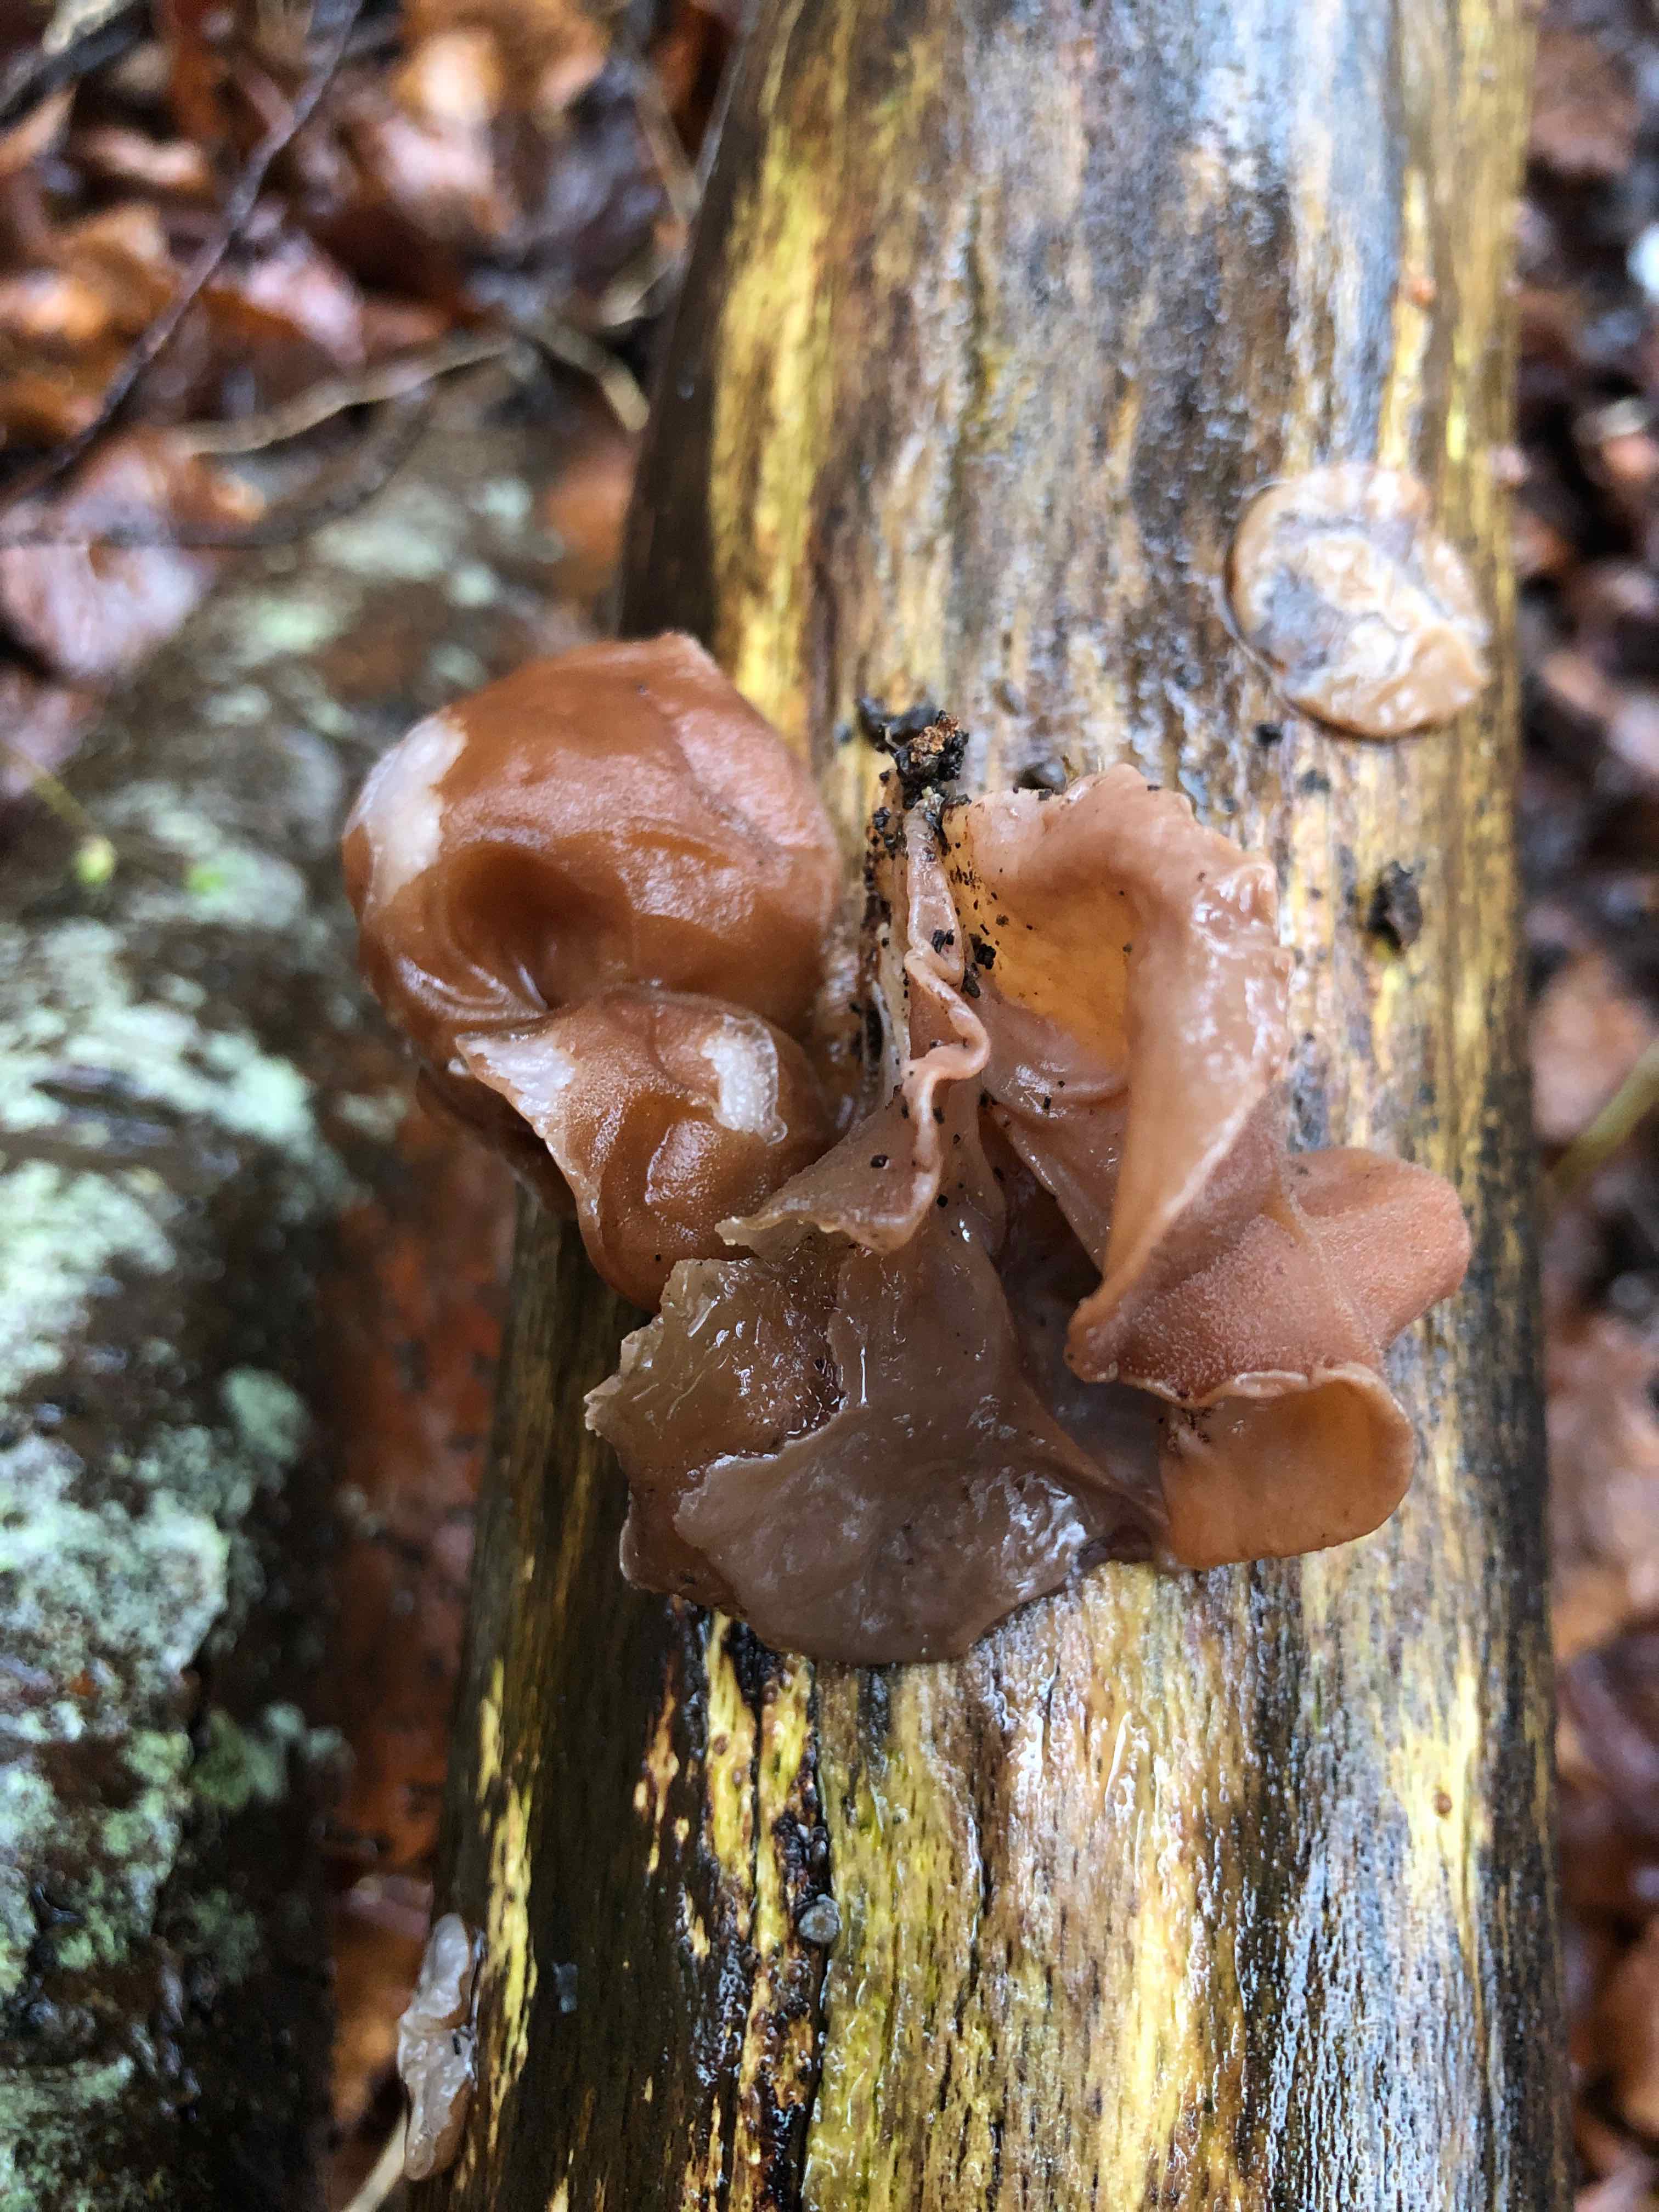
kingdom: Fungi
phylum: Basidiomycota
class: Agaricomycetes
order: Auriculariales
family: Auriculariaceae
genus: Auricularia
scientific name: Auricularia auricula-judae
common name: almindelig judasøre
